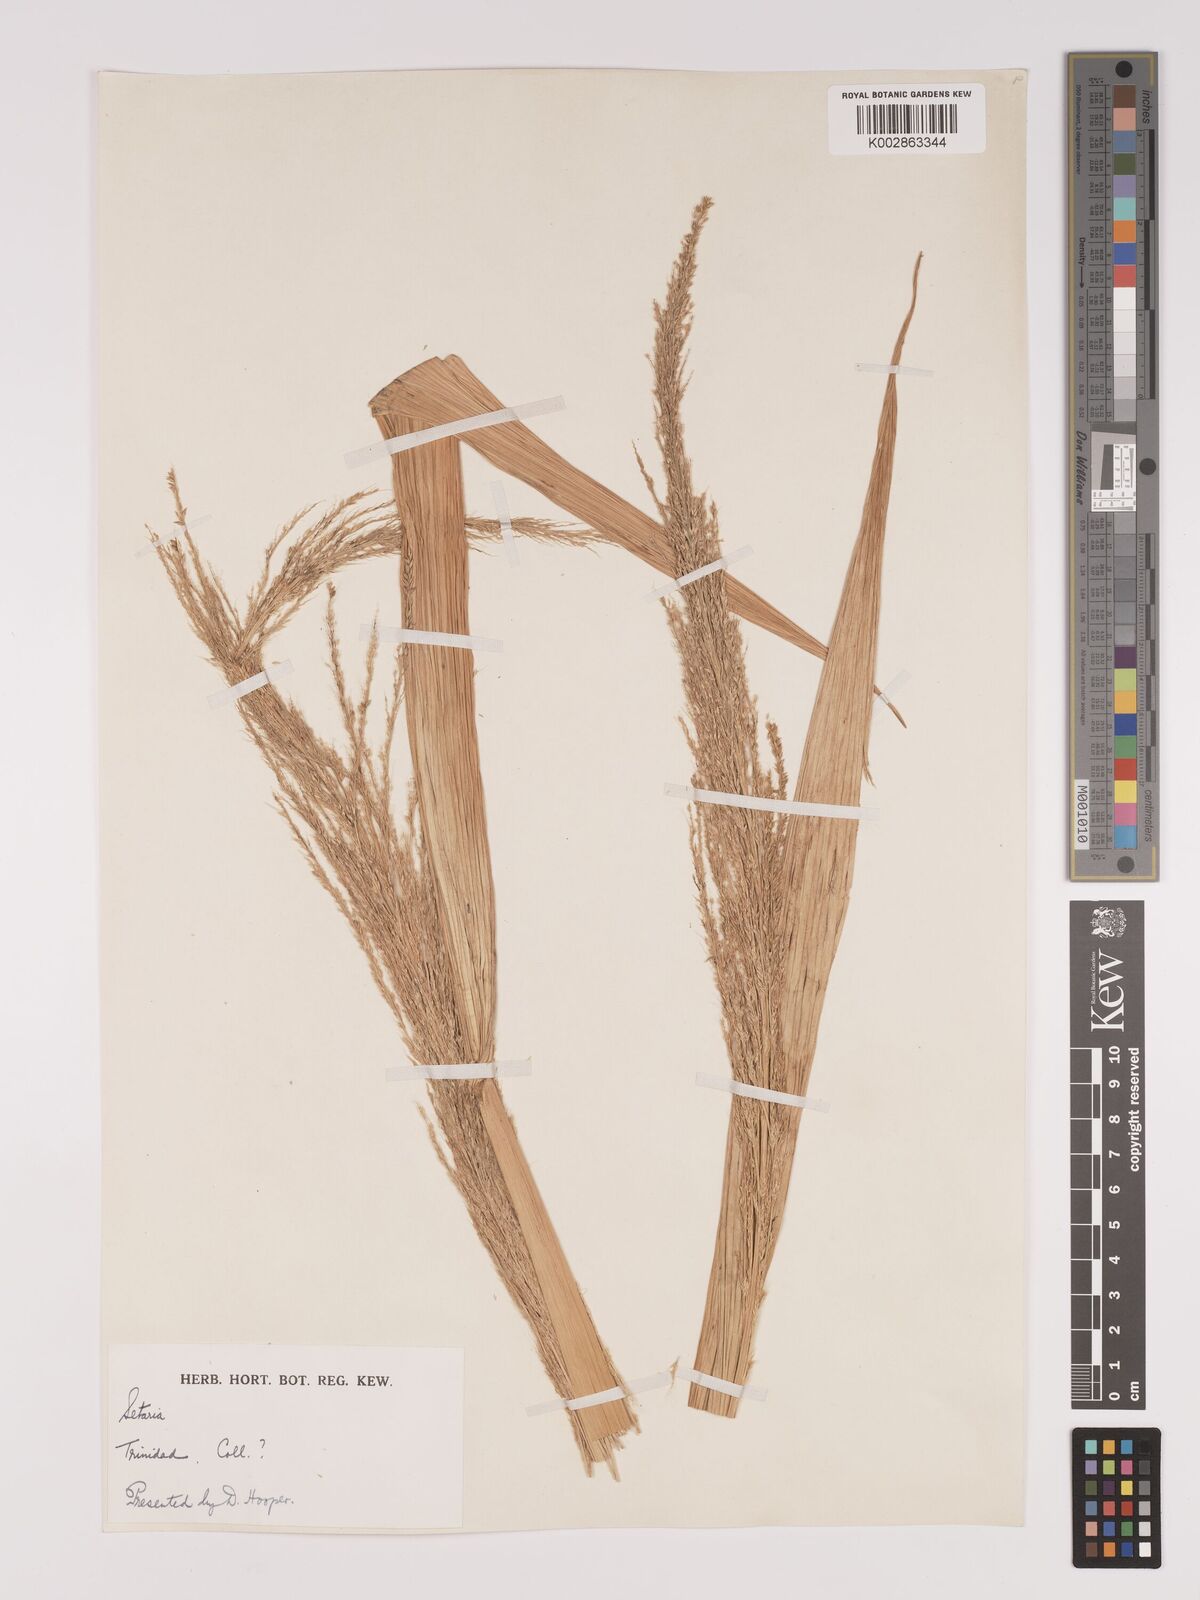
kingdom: Plantae
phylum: Tracheophyta
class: Liliopsida
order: Poales
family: Poaceae
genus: Setaria
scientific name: Setaria palmifolia
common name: Broadleaved bristlegrass
